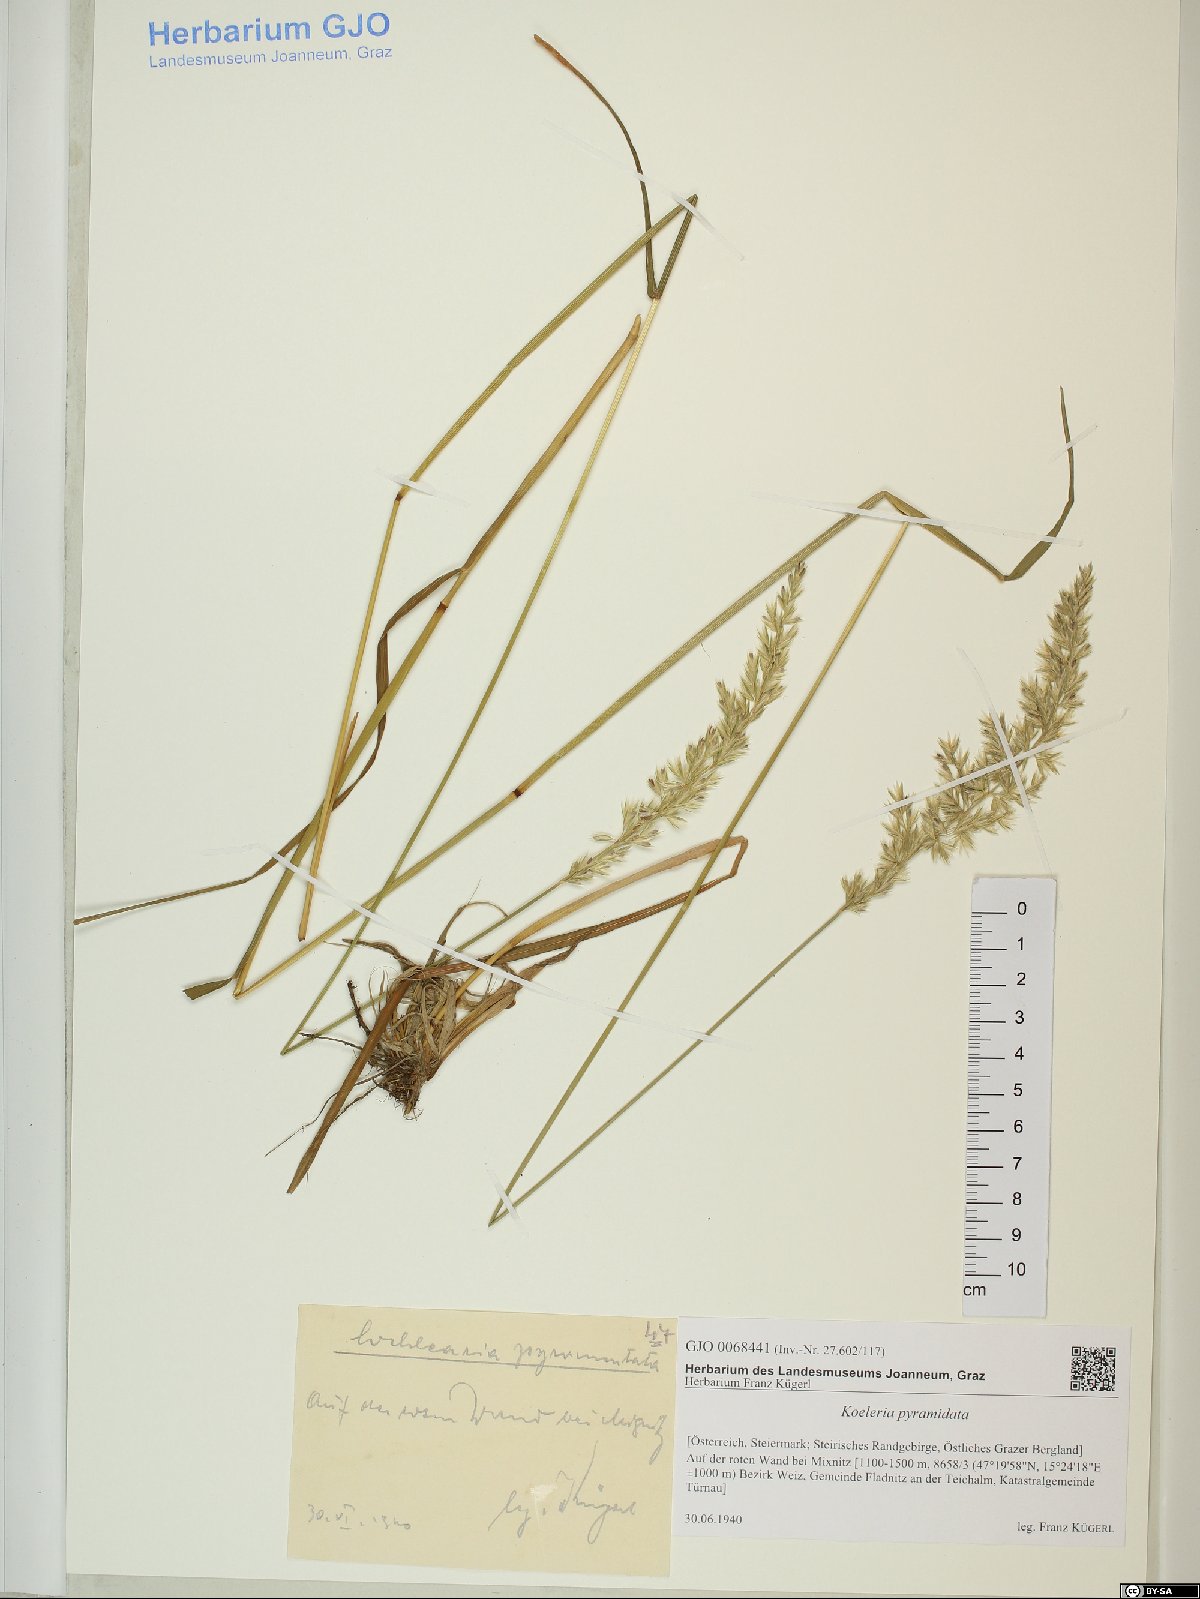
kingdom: Plantae
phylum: Tracheophyta
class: Liliopsida
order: Poales
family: Poaceae
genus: Koeleria
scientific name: Koeleria pyramidata
